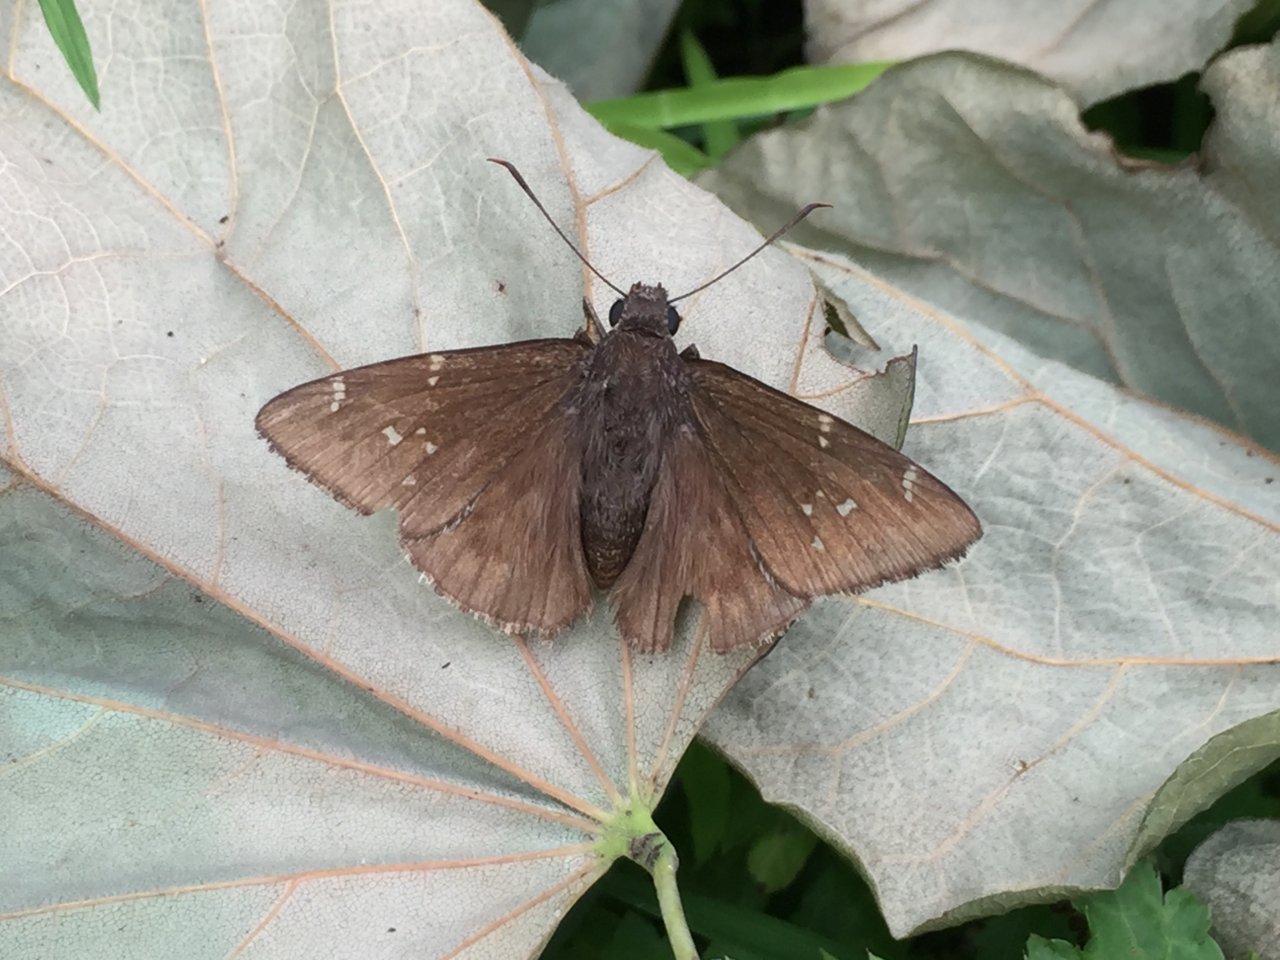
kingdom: Animalia
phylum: Arthropoda
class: Insecta
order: Lepidoptera
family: Hesperiidae
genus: Autochton
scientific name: Autochton
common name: Northern Cloudywing
